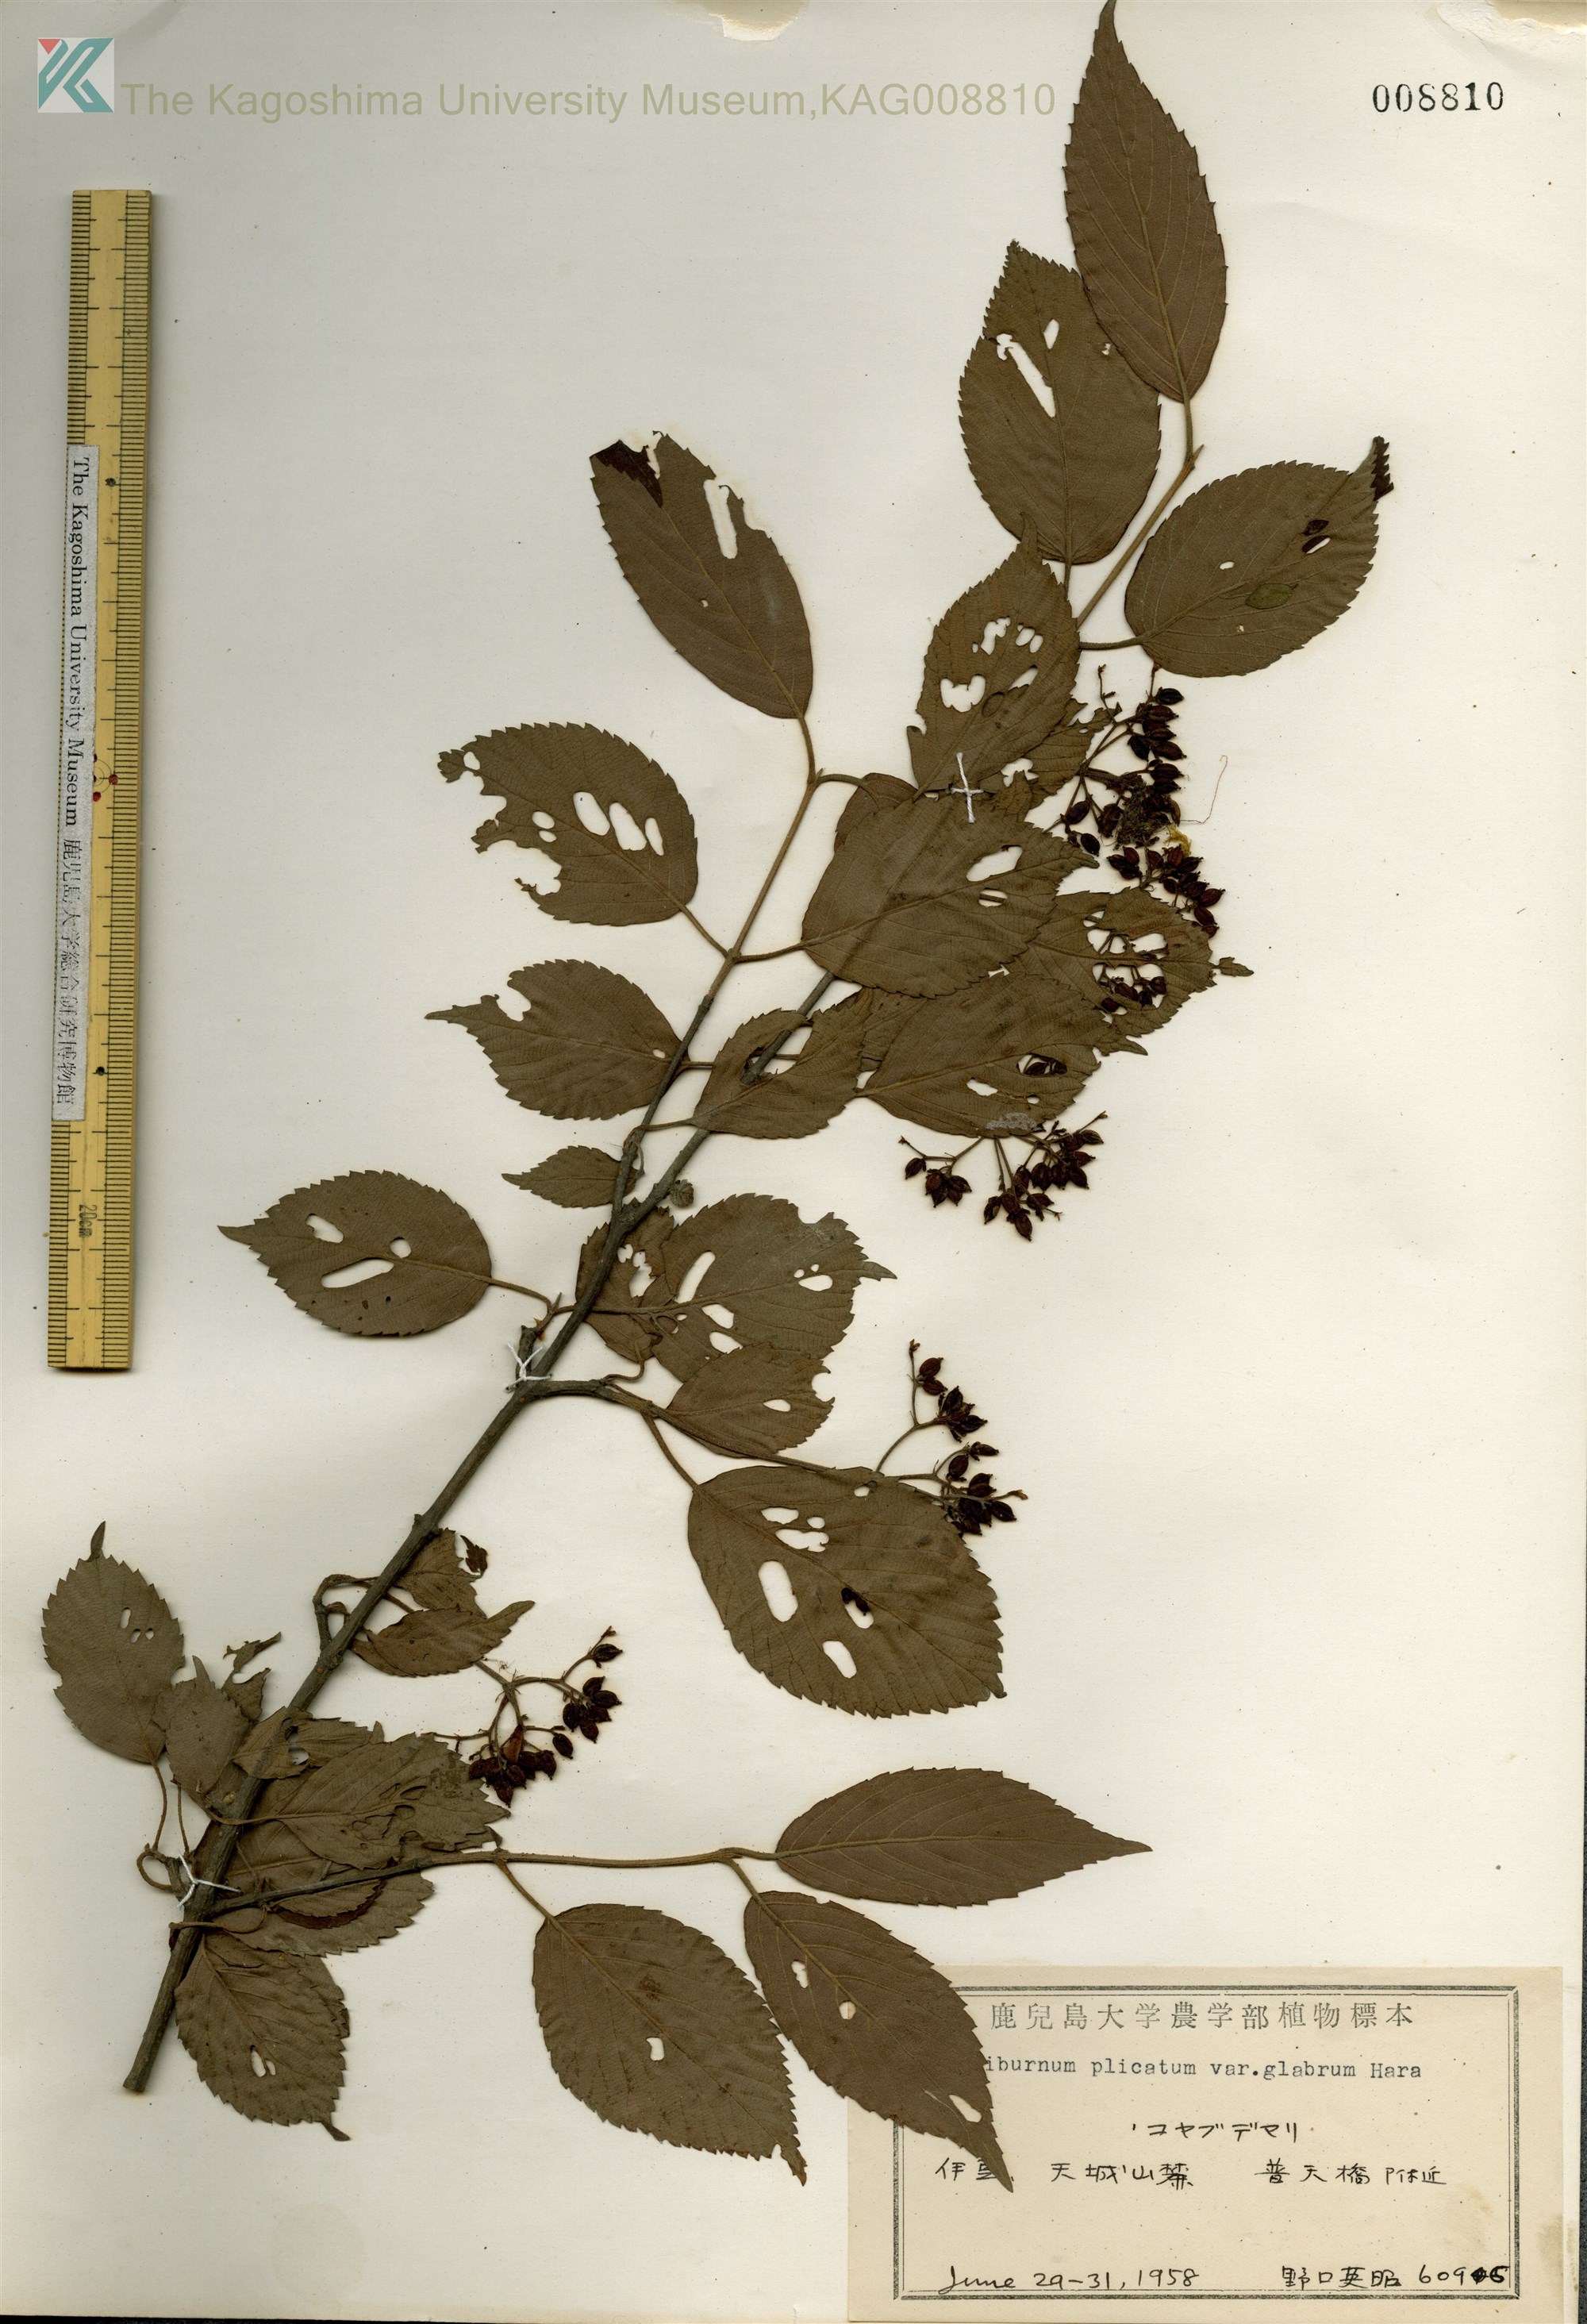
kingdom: Plantae
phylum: Tracheophyta
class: Magnoliopsida
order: Dipsacales
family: Viburnaceae
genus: Viburnum
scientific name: Viburnum plicatum
